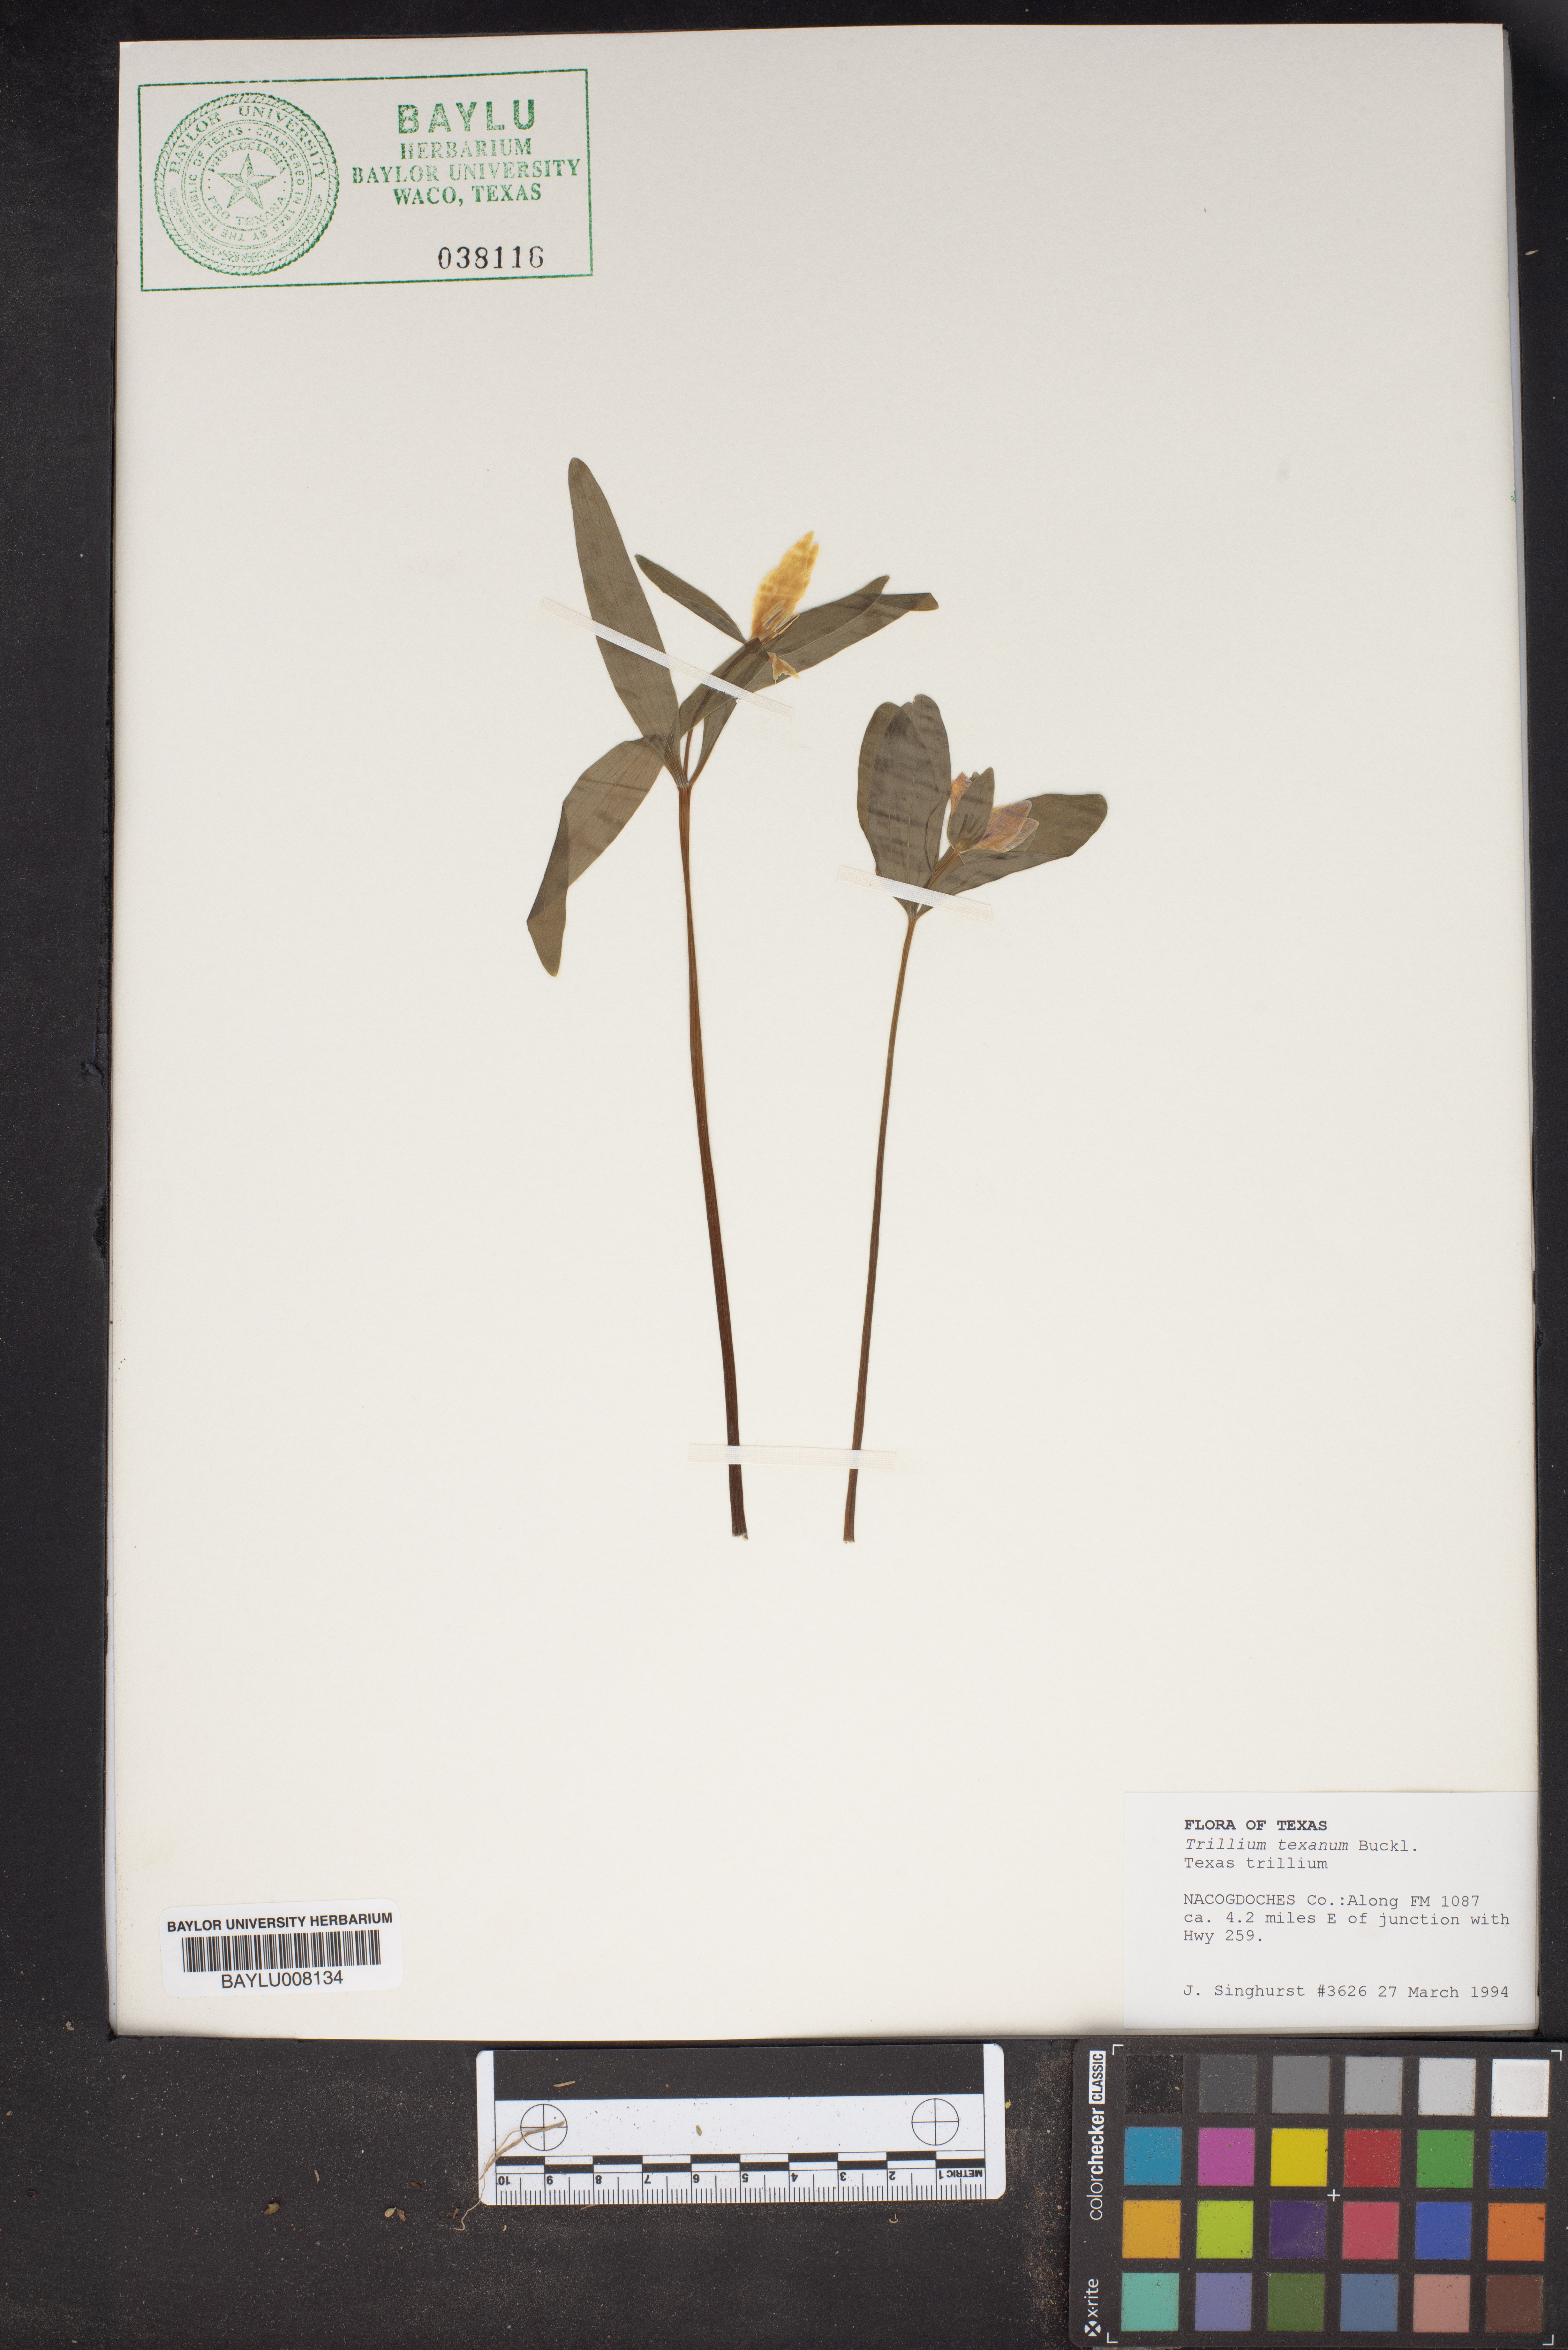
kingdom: Plantae
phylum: Tracheophyta
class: Liliopsida
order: Liliales
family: Melanthiaceae
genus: Trillium
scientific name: Trillium pusillum
